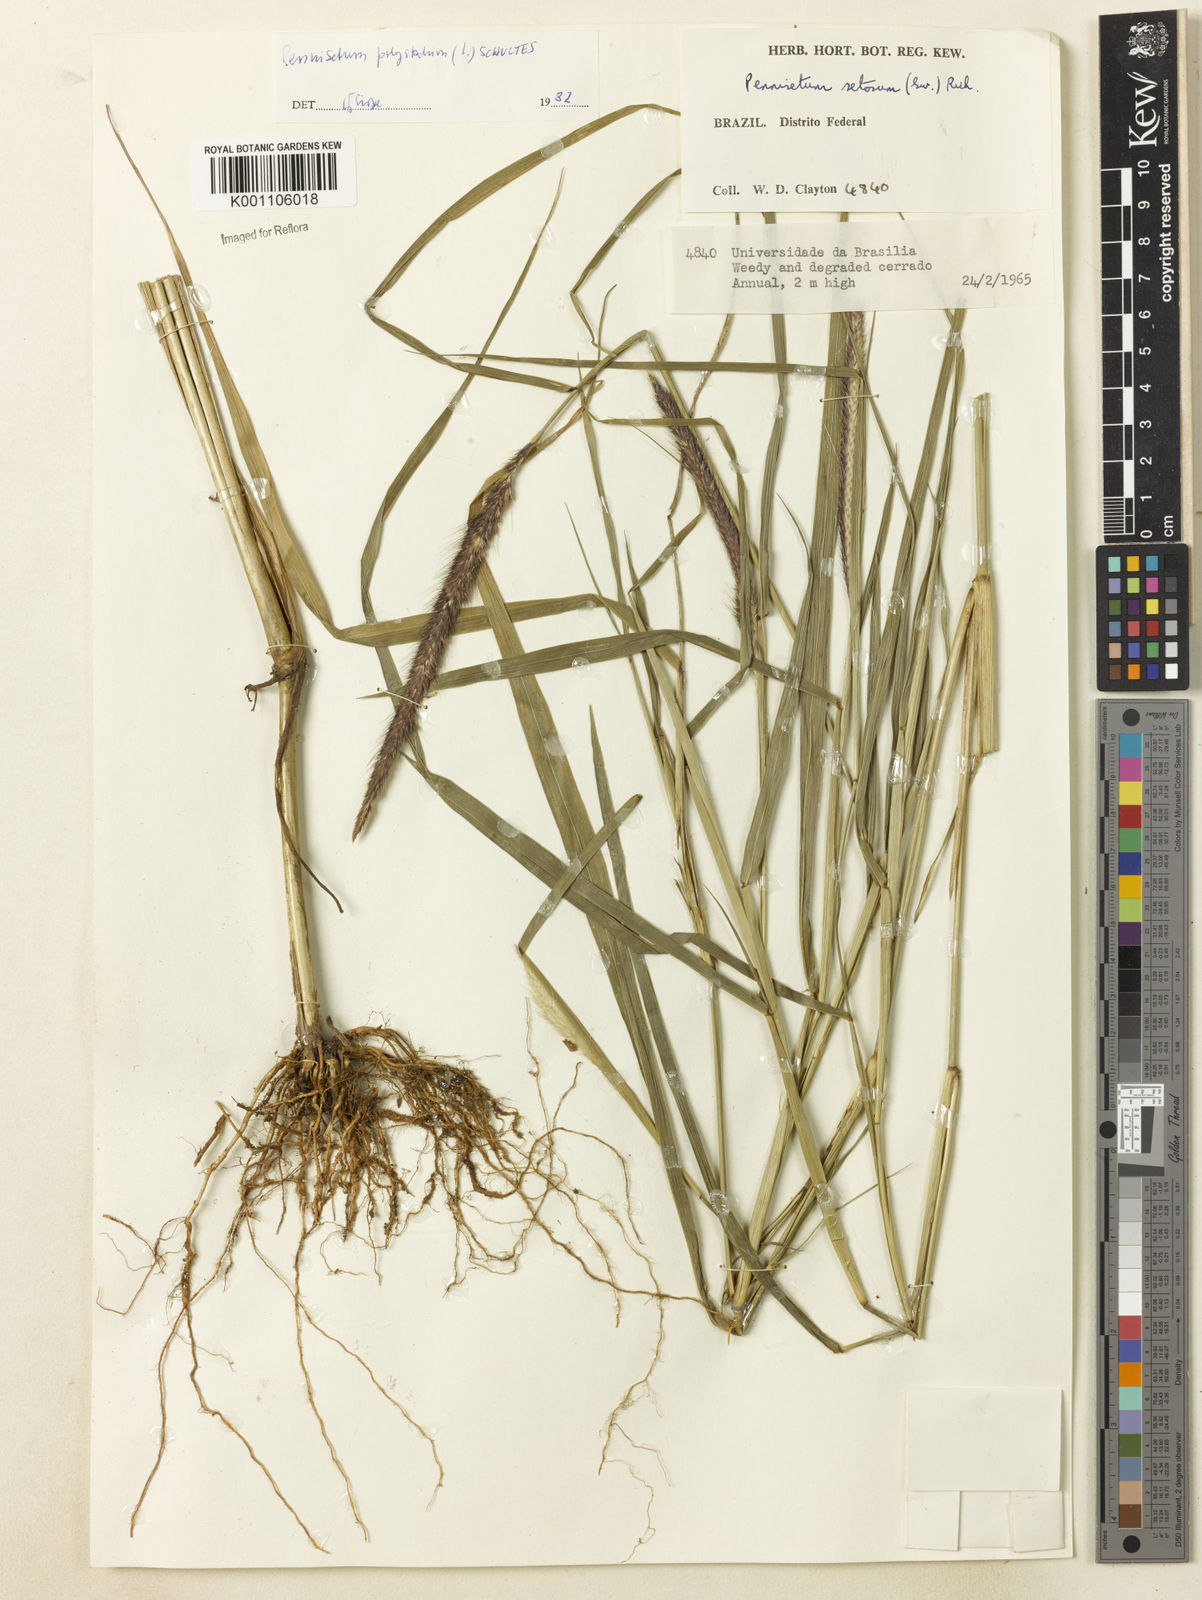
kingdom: Plantae
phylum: Tracheophyta
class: Liliopsida
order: Poales
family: Poaceae
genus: Setaria
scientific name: Setaria parviflora
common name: Knotroot bristle-grass
